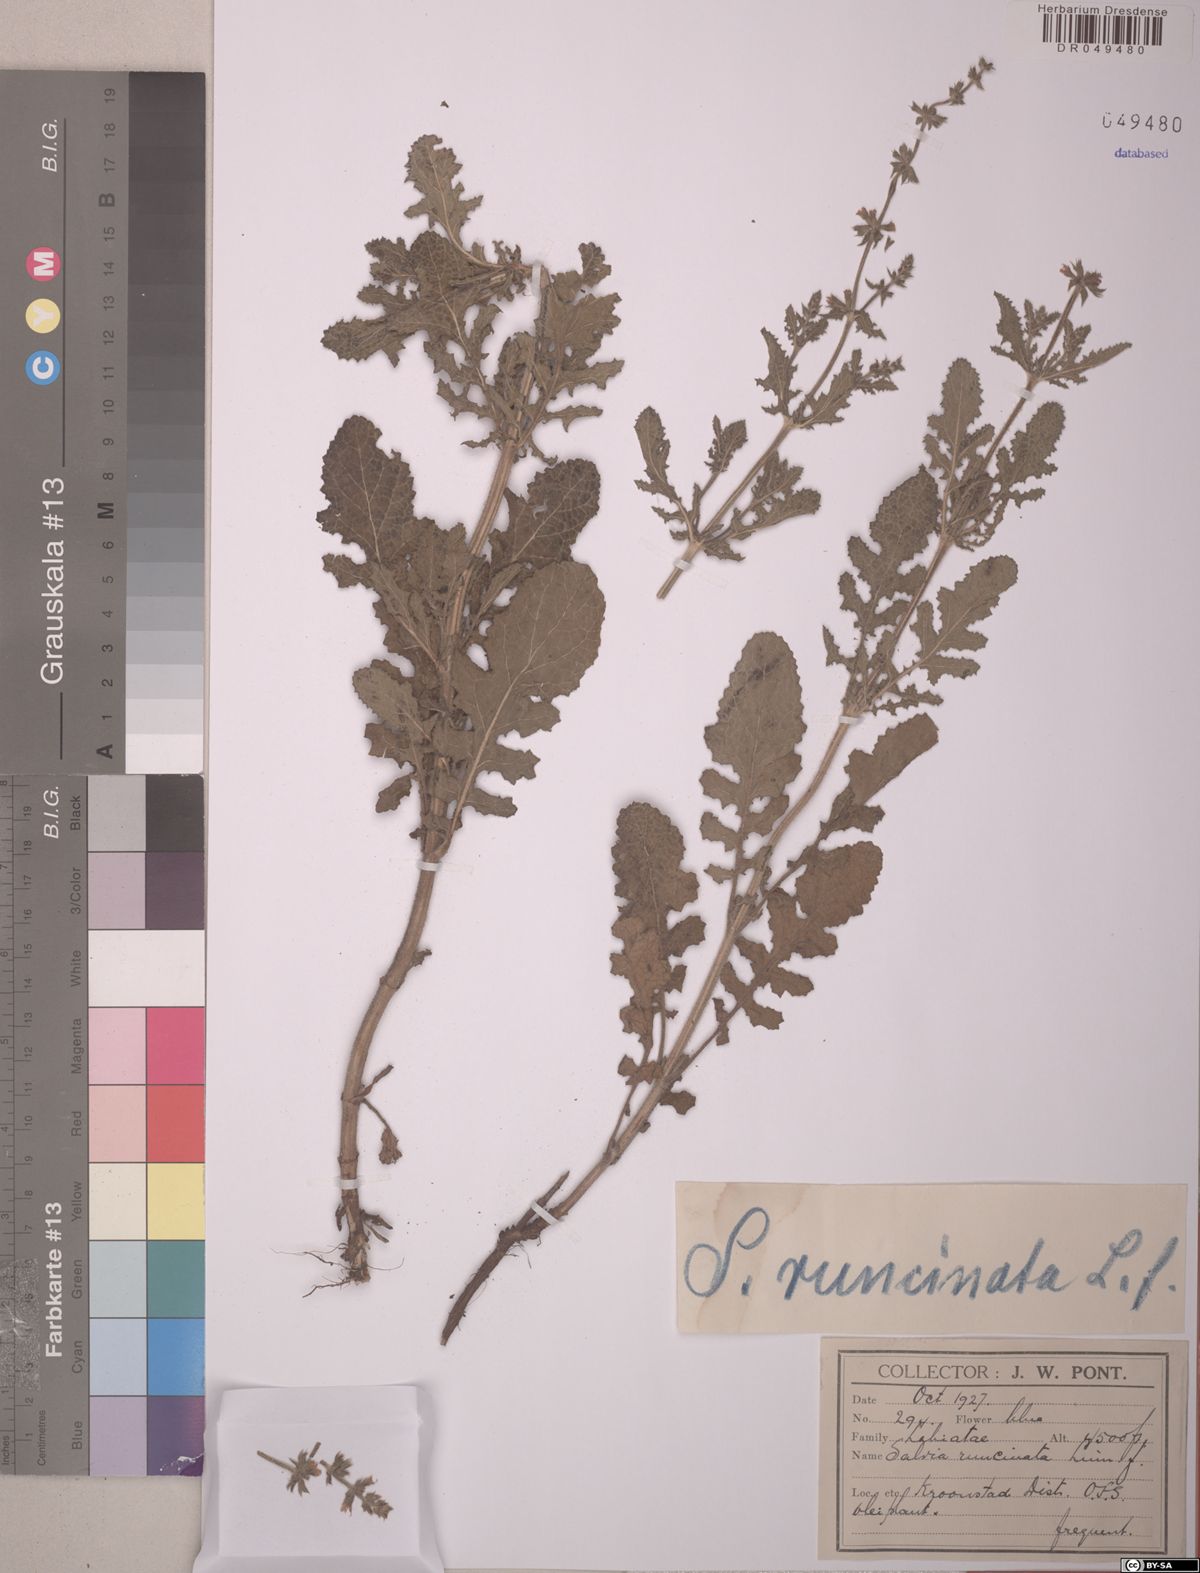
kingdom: Plantae
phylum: Tracheophyta
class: Magnoliopsida
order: Lamiales
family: Lamiaceae
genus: Salvia
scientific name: Salvia runcinata
